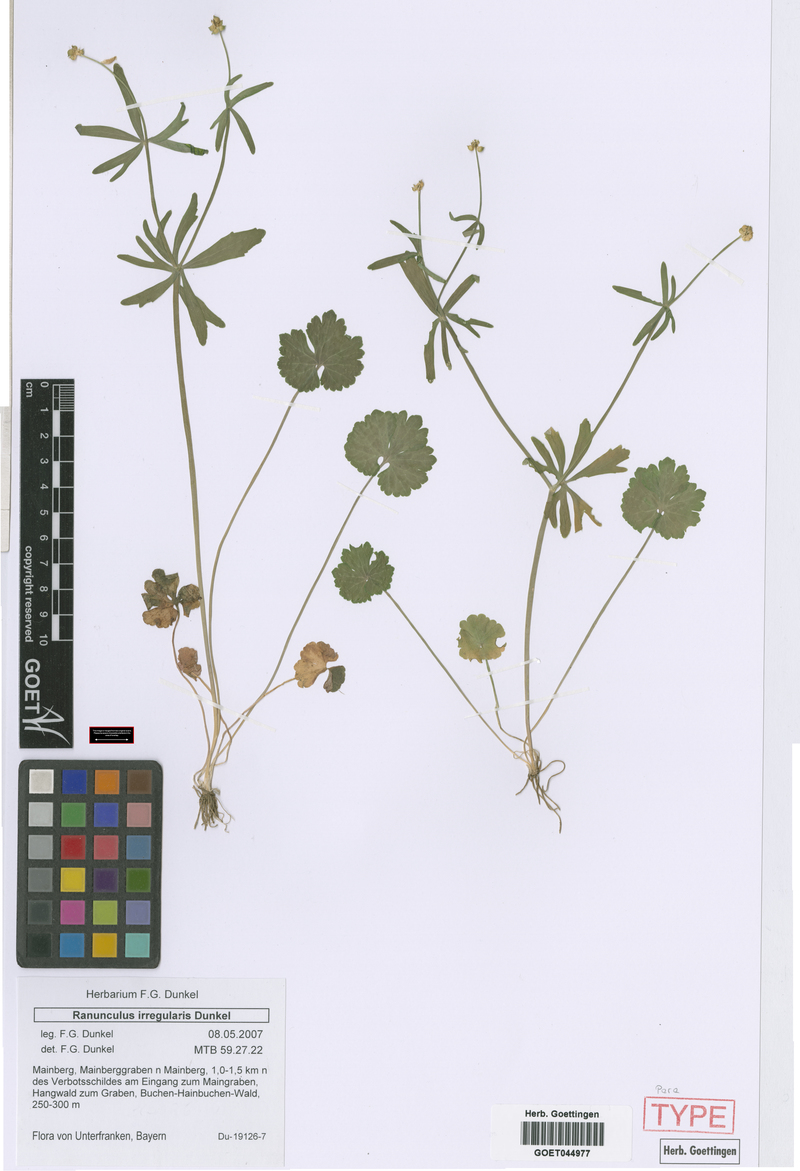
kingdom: Plantae
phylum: Tracheophyta
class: Magnoliopsida
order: Ranunculales
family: Ranunculaceae
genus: Ranunculus
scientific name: Ranunculus irregularis
